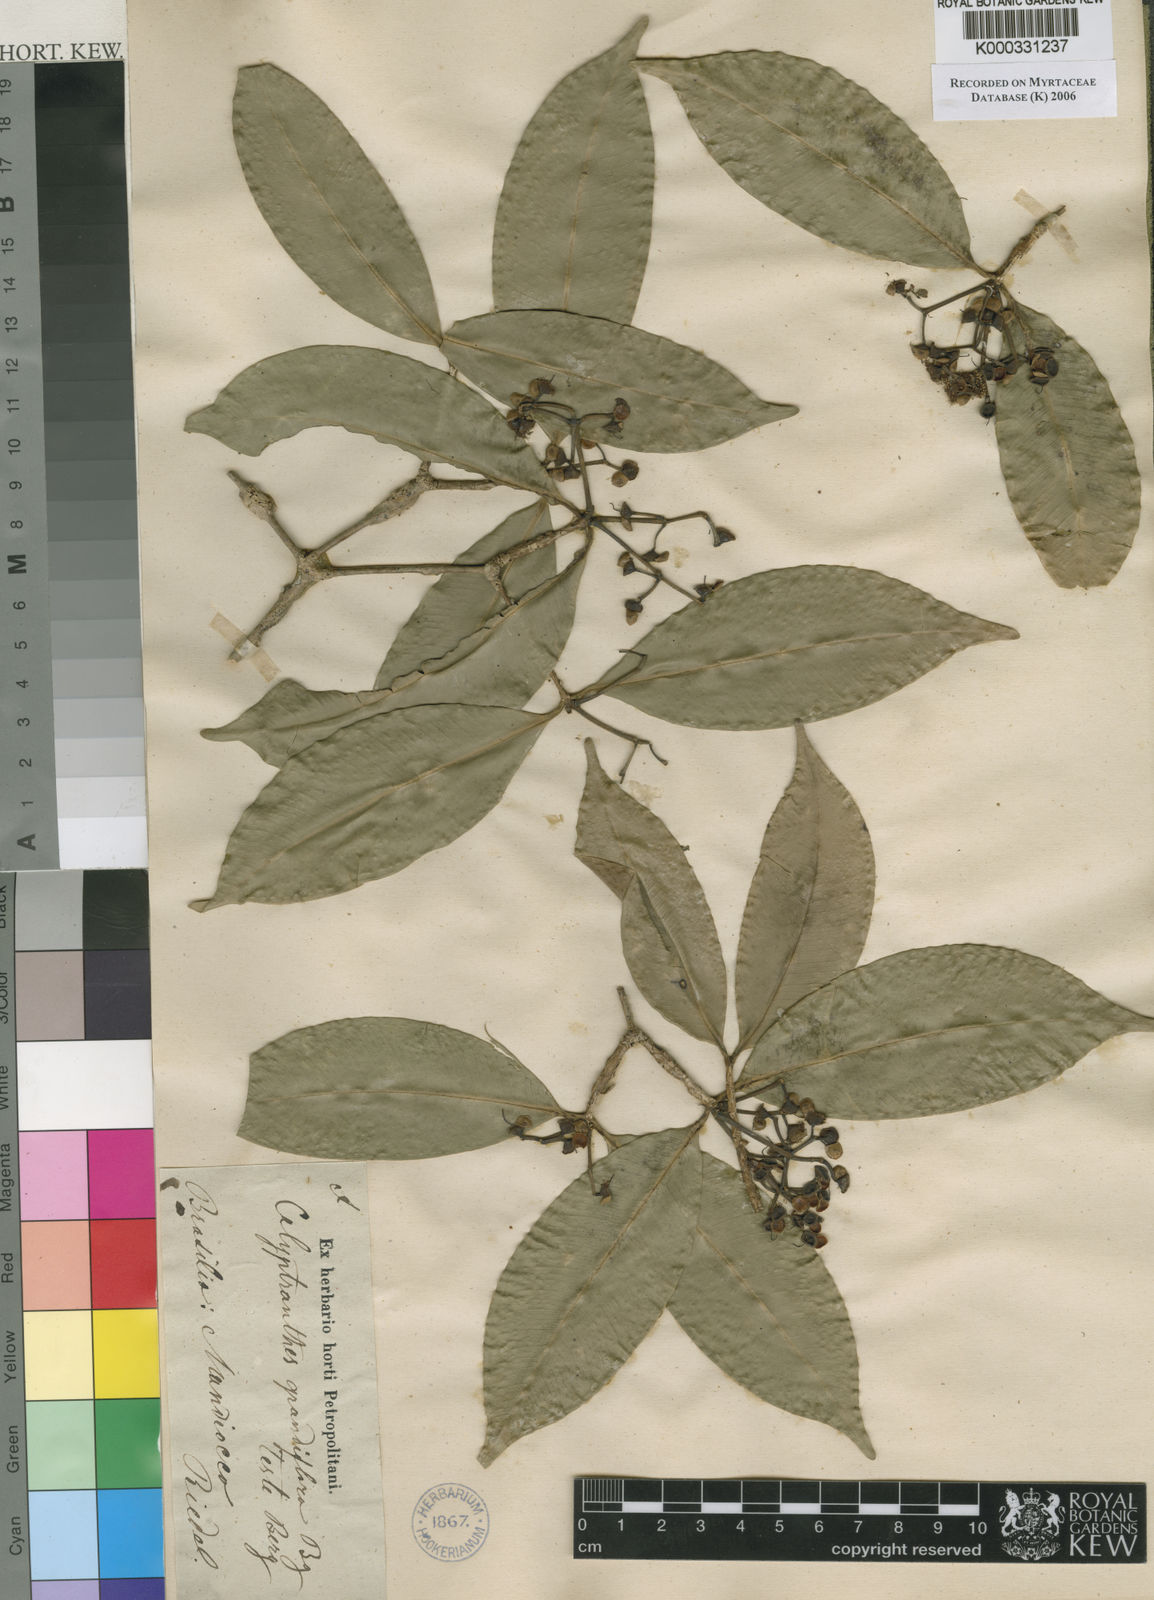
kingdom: Plantae
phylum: Tracheophyta
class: Magnoliopsida
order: Myrtales
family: Myrtaceae
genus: Calyptranthes
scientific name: Calyptranthes grandiflora
